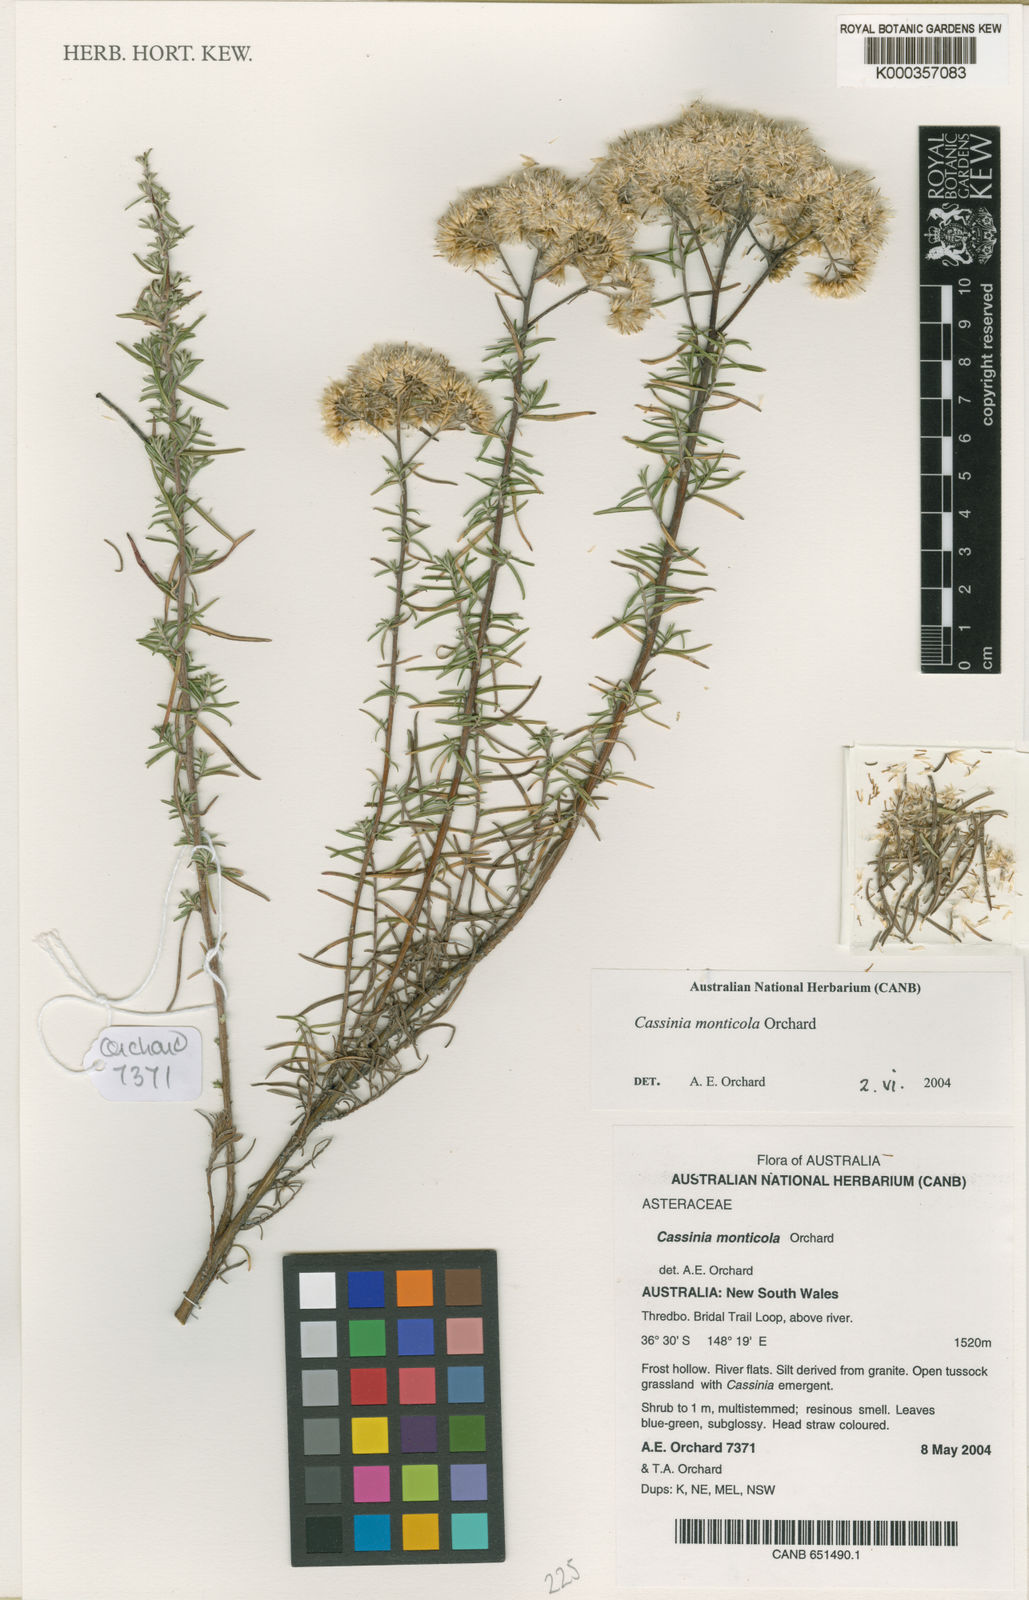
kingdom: Plantae
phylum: Tracheophyta
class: Magnoliopsida
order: Asterales
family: Asteraceae
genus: Cassinia
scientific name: Cassinia monticola
